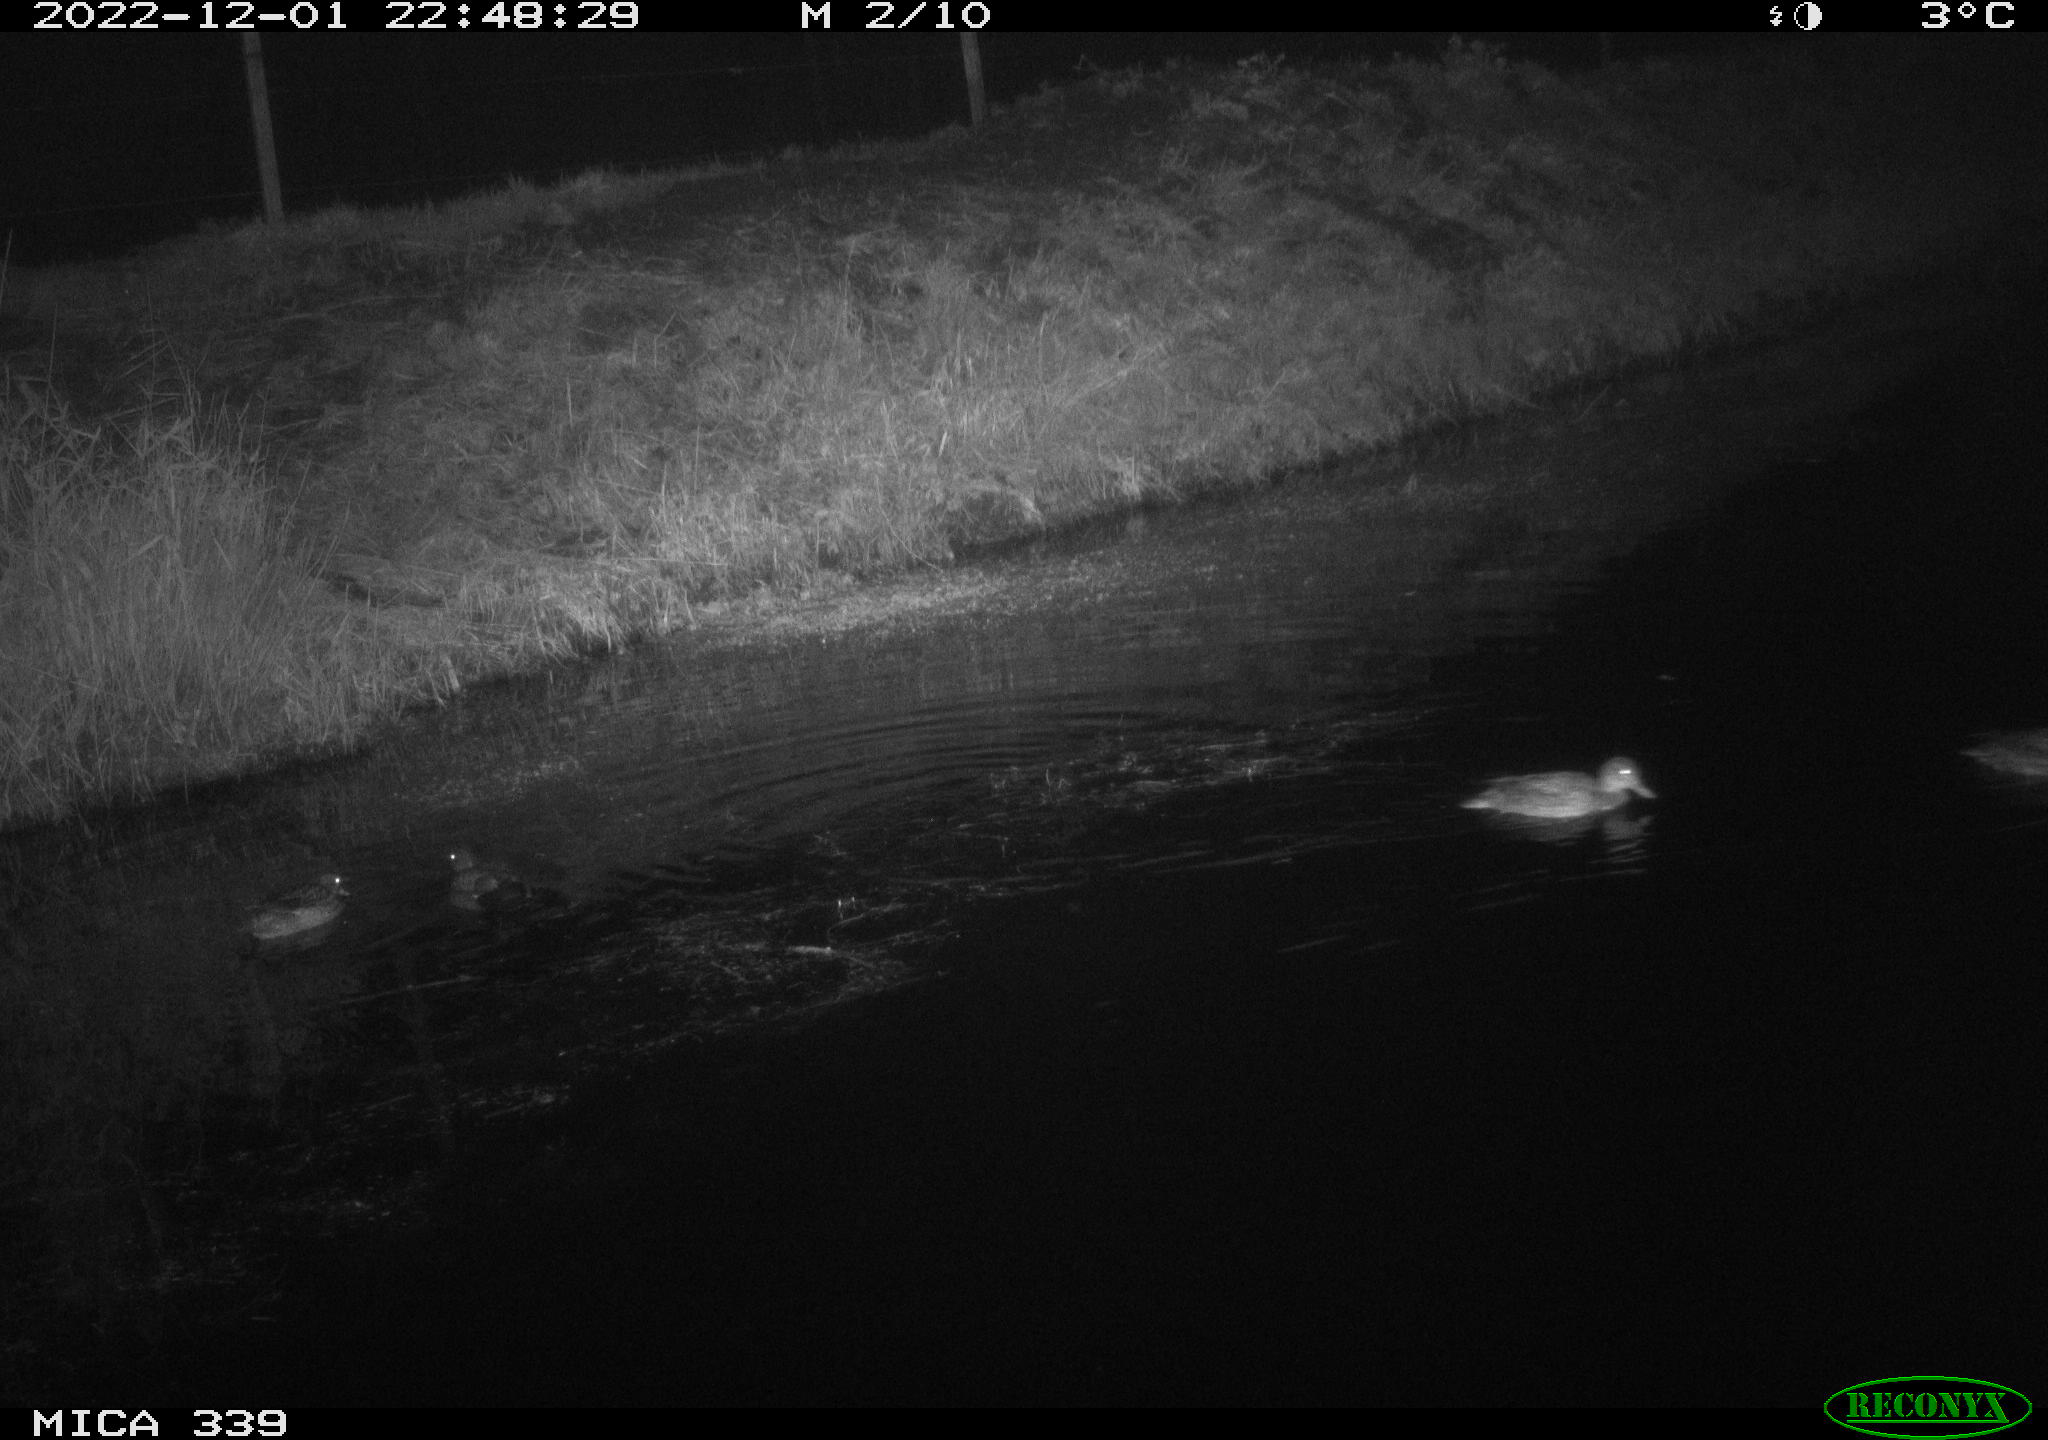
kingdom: Animalia
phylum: Chordata
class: Aves
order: Anseriformes
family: Anatidae
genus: Anas
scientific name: Anas
